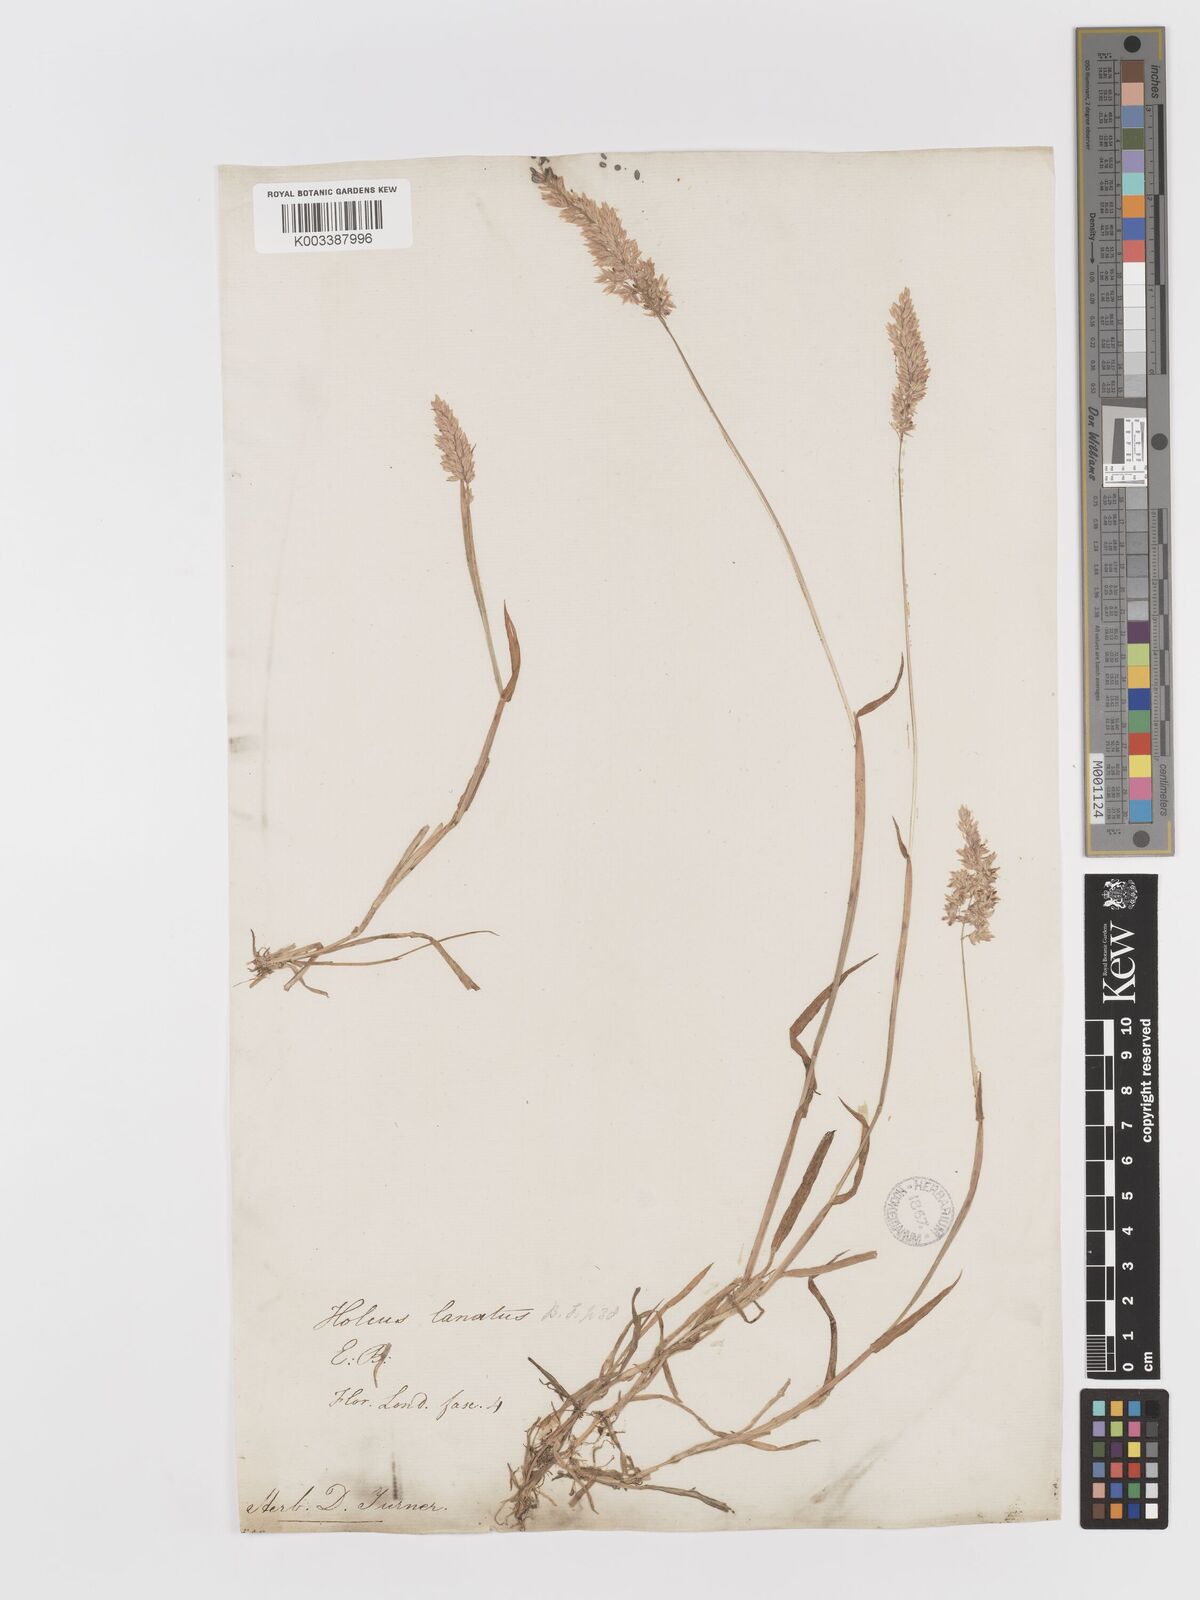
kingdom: Plantae
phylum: Tracheophyta
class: Liliopsida
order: Poales
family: Poaceae
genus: Holcus
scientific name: Holcus lanatus
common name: Yorkshire-fog
